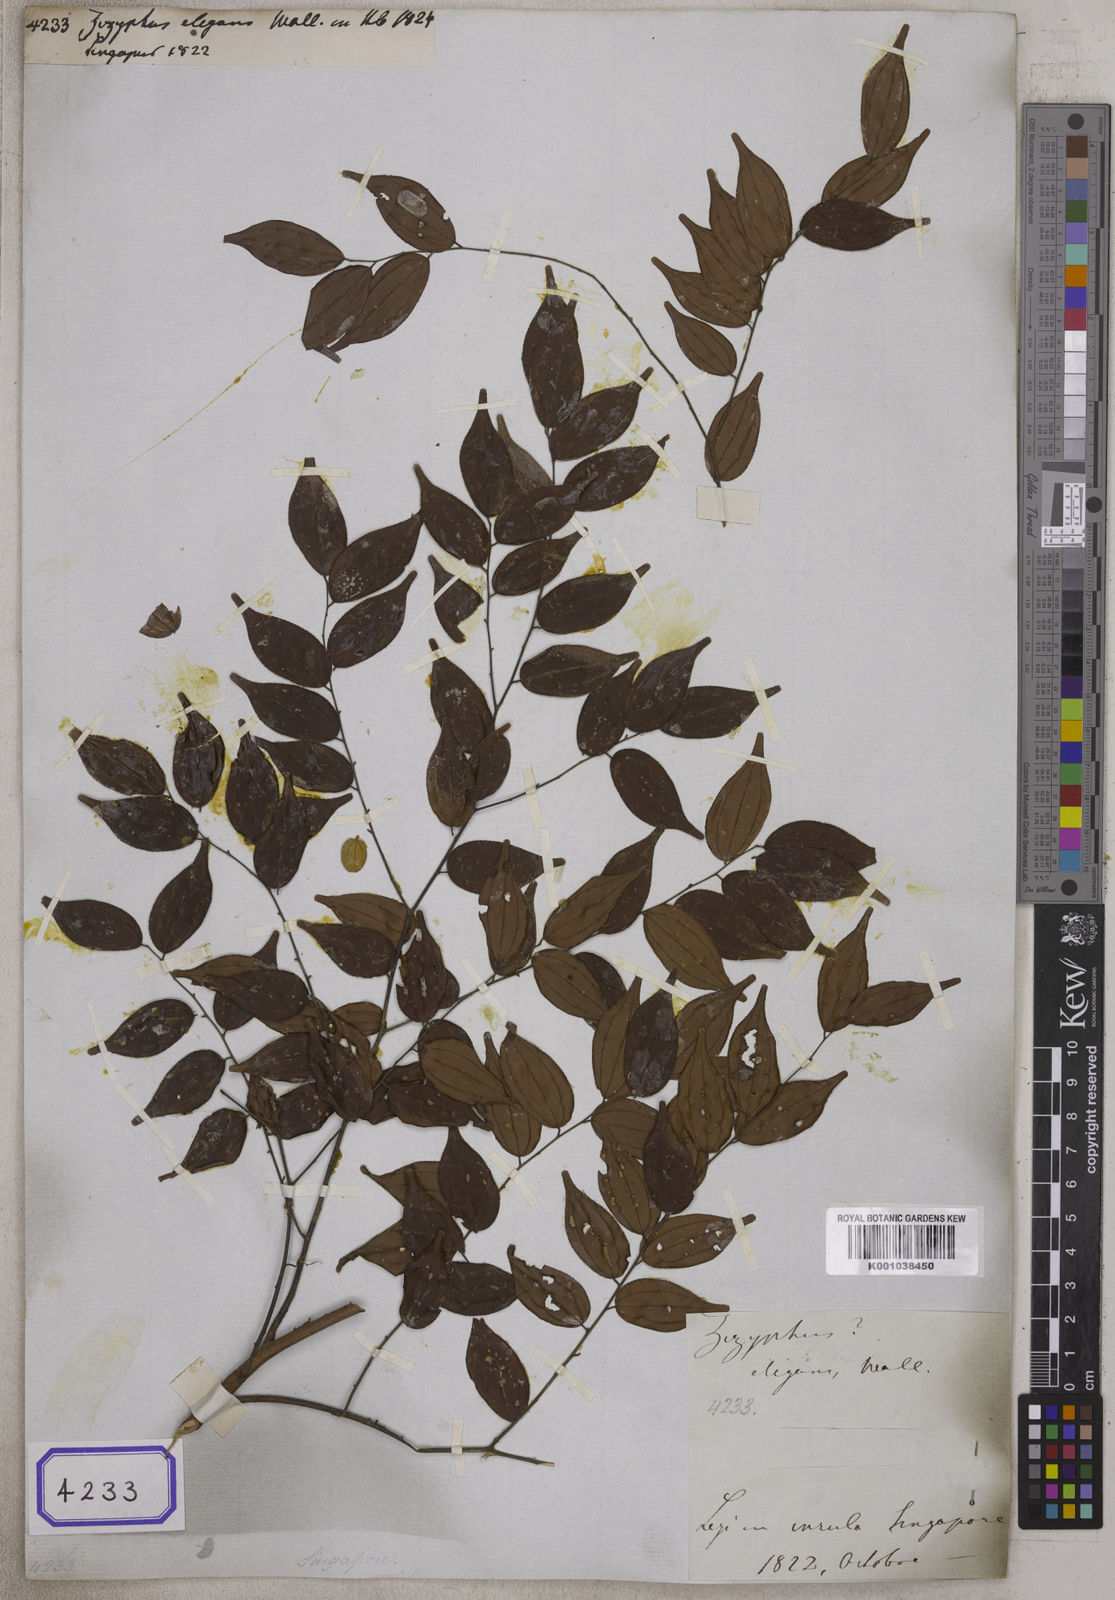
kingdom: Plantae
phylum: Tracheophyta
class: Magnoliopsida
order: Rosales
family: Rhamnaceae
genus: Ziziphus
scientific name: Ziziphus elegans
